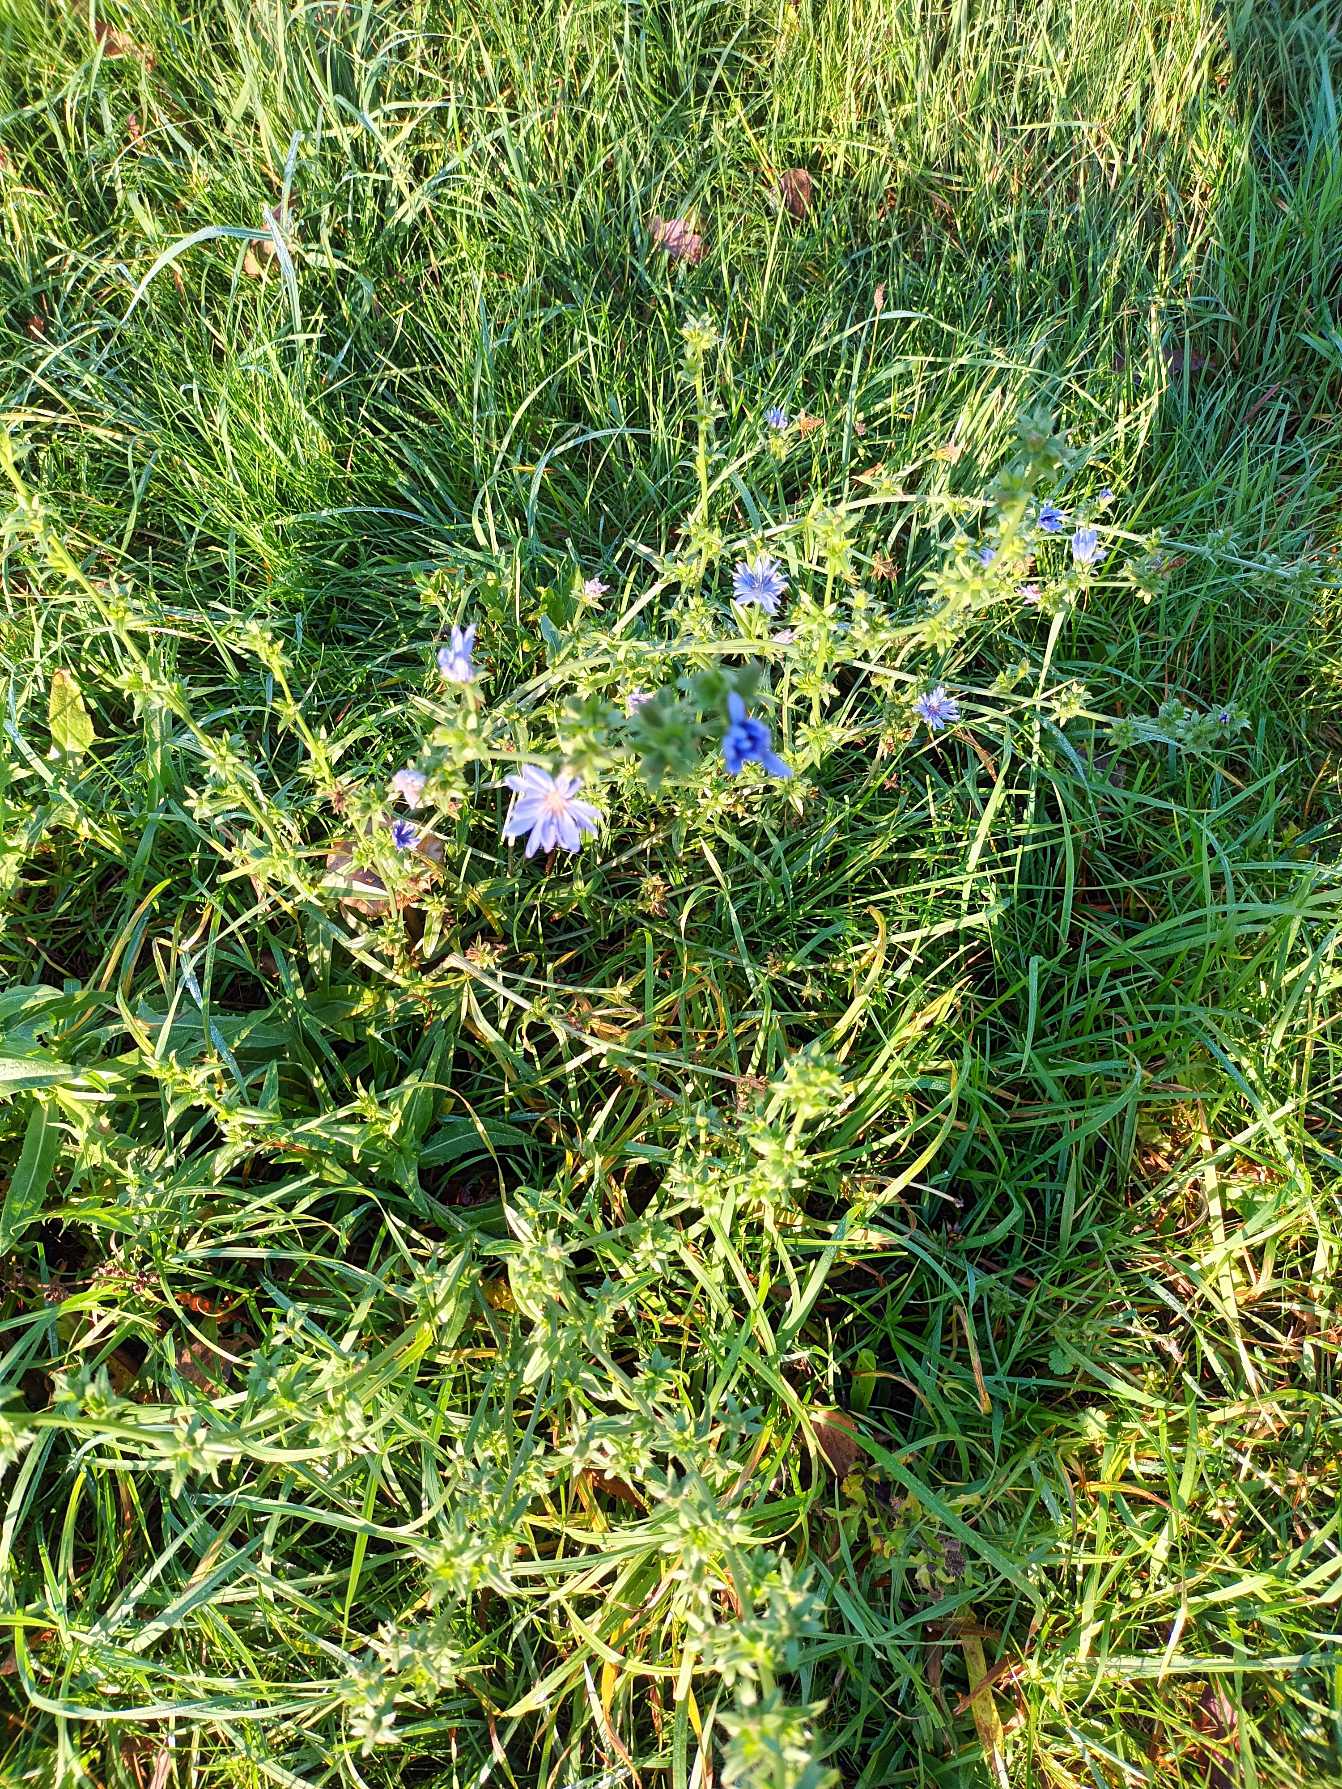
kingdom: Plantae
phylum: Tracheophyta
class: Magnoliopsida
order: Asterales
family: Asteraceae
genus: Cichorium
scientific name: Cichorium intybus
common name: Cikorie
